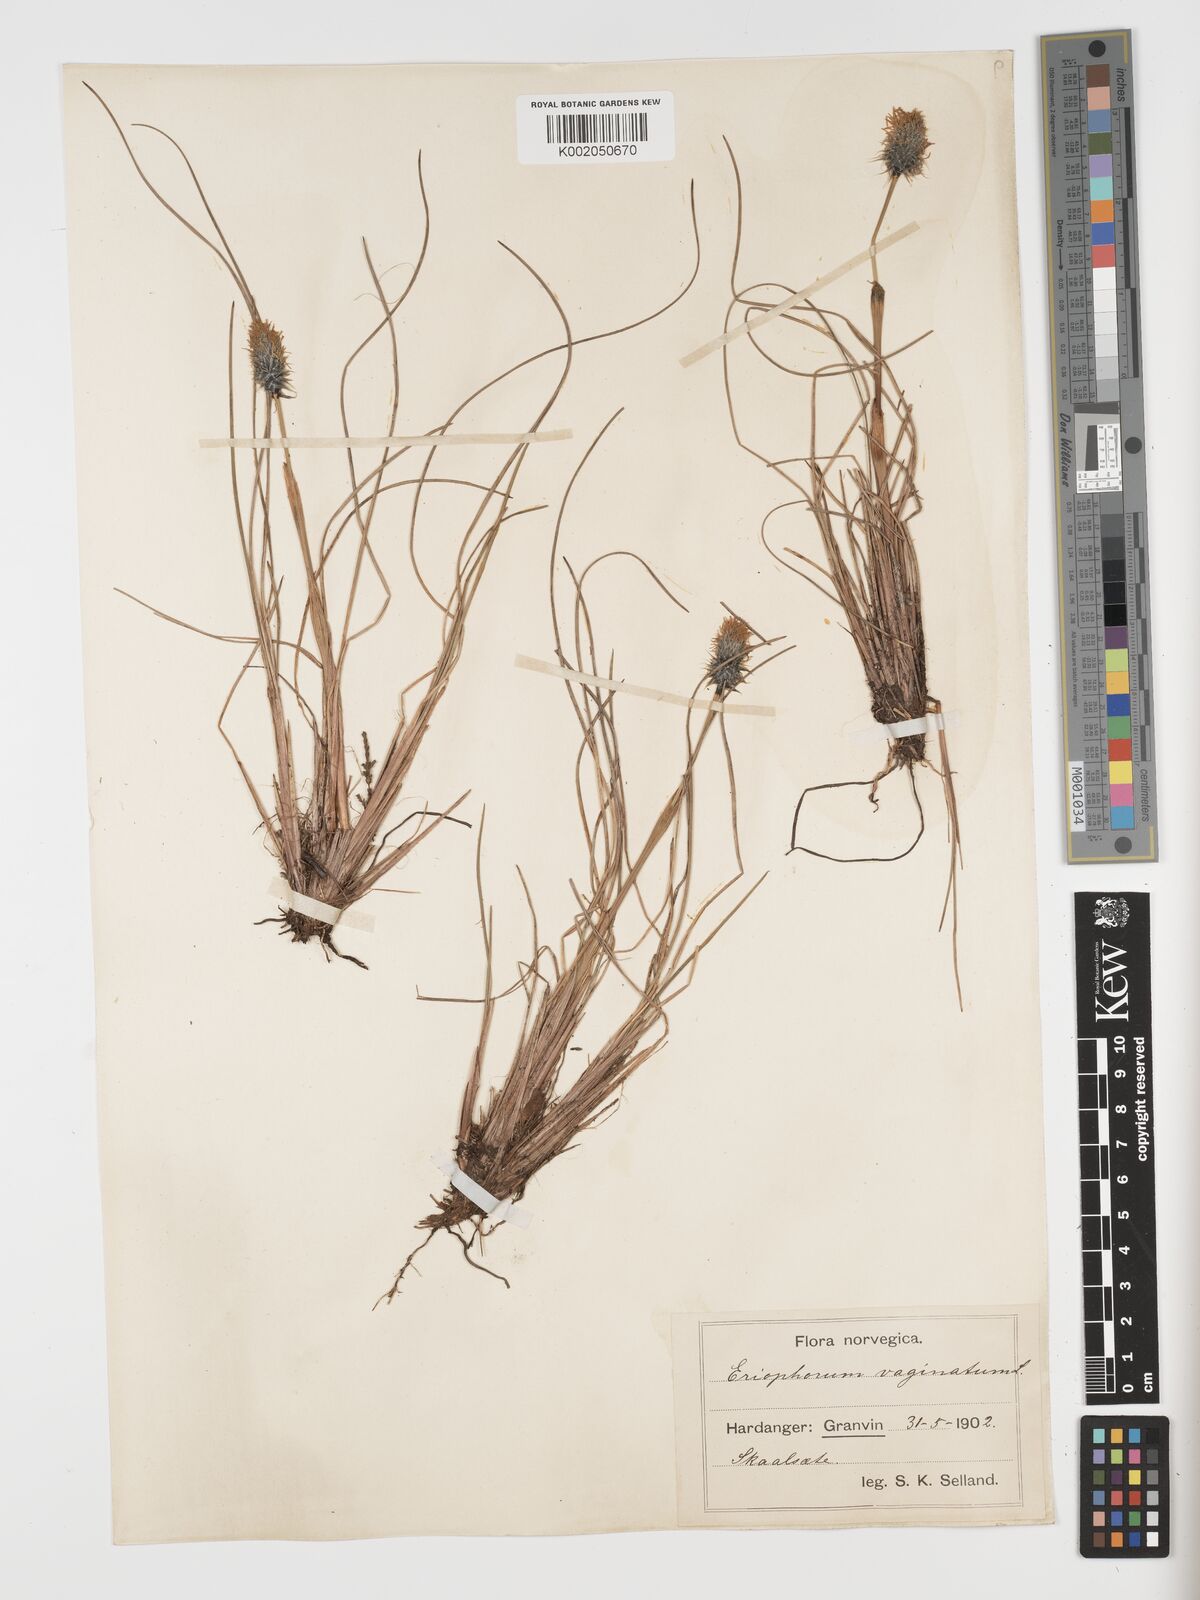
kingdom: Plantae
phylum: Tracheophyta
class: Liliopsida
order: Poales
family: Cyperaceae
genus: Eriophorum
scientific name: Eriophorum vaginatum
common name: Hare's-tail cottongrass
